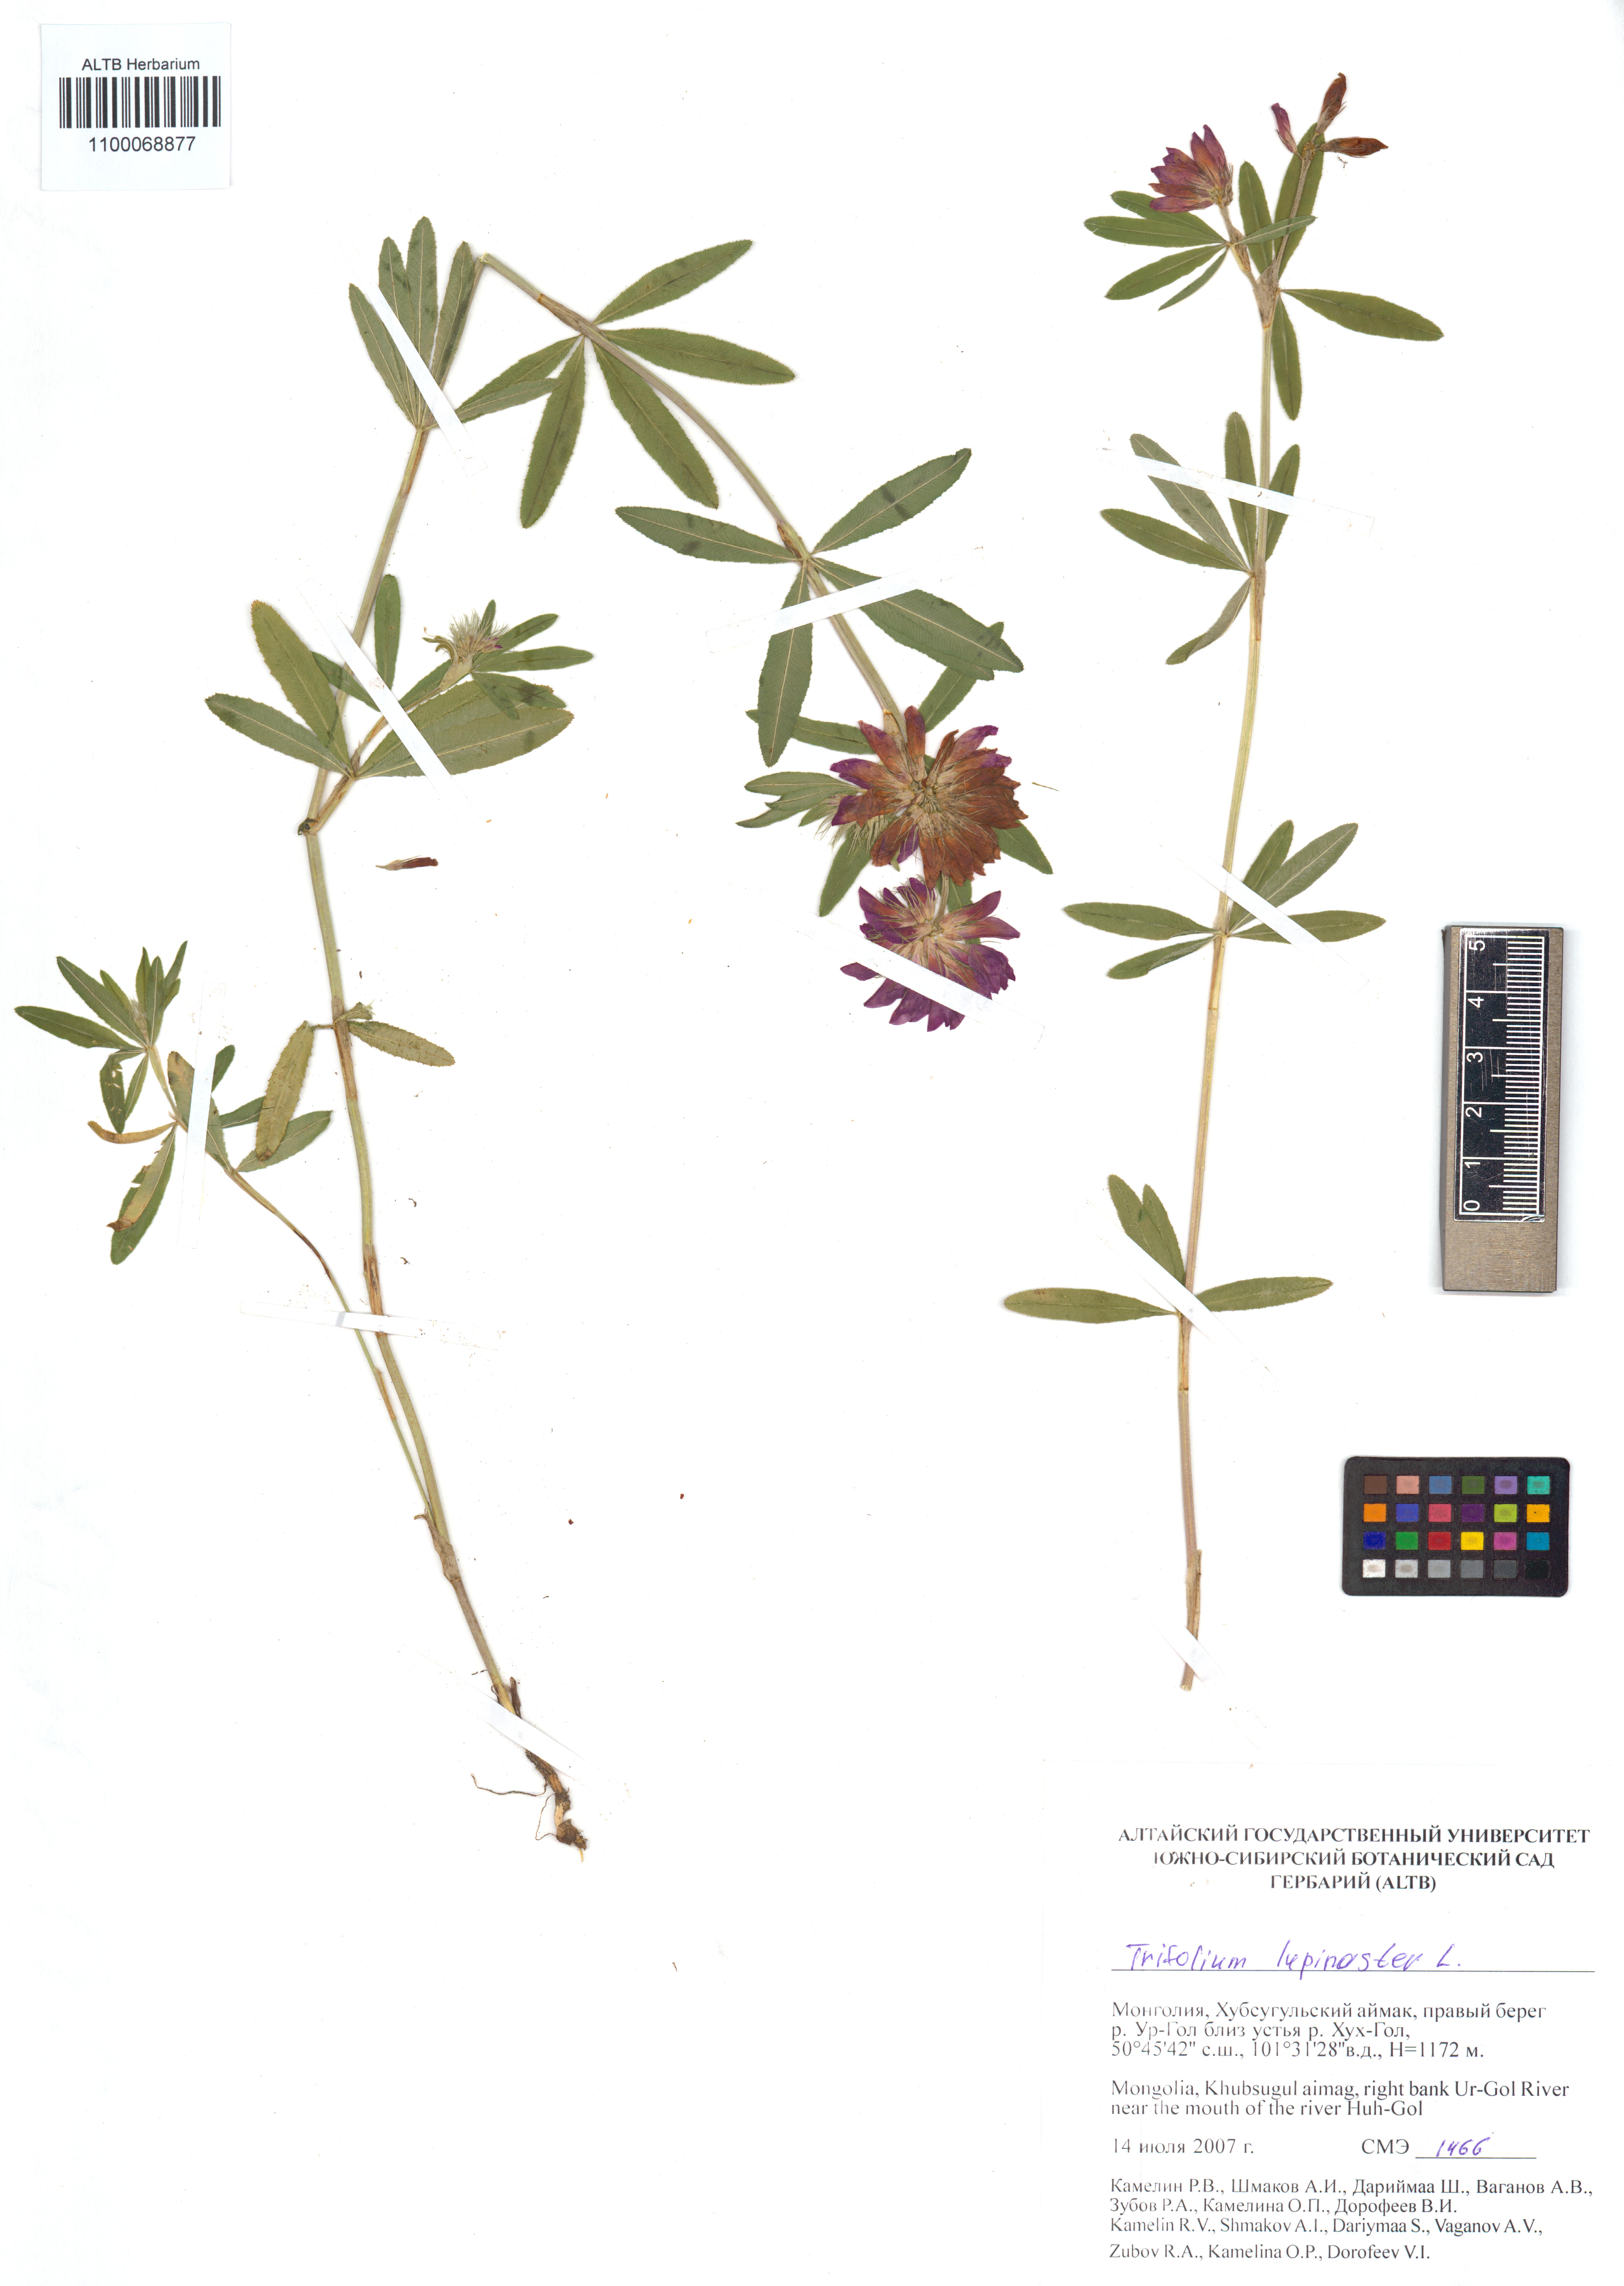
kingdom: Plantae
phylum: Tracheophyta
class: Magnoliopsida
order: Fabales
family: Fabaceae
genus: Trifolium
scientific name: Trifolium lupinaster
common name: Lupine clover
